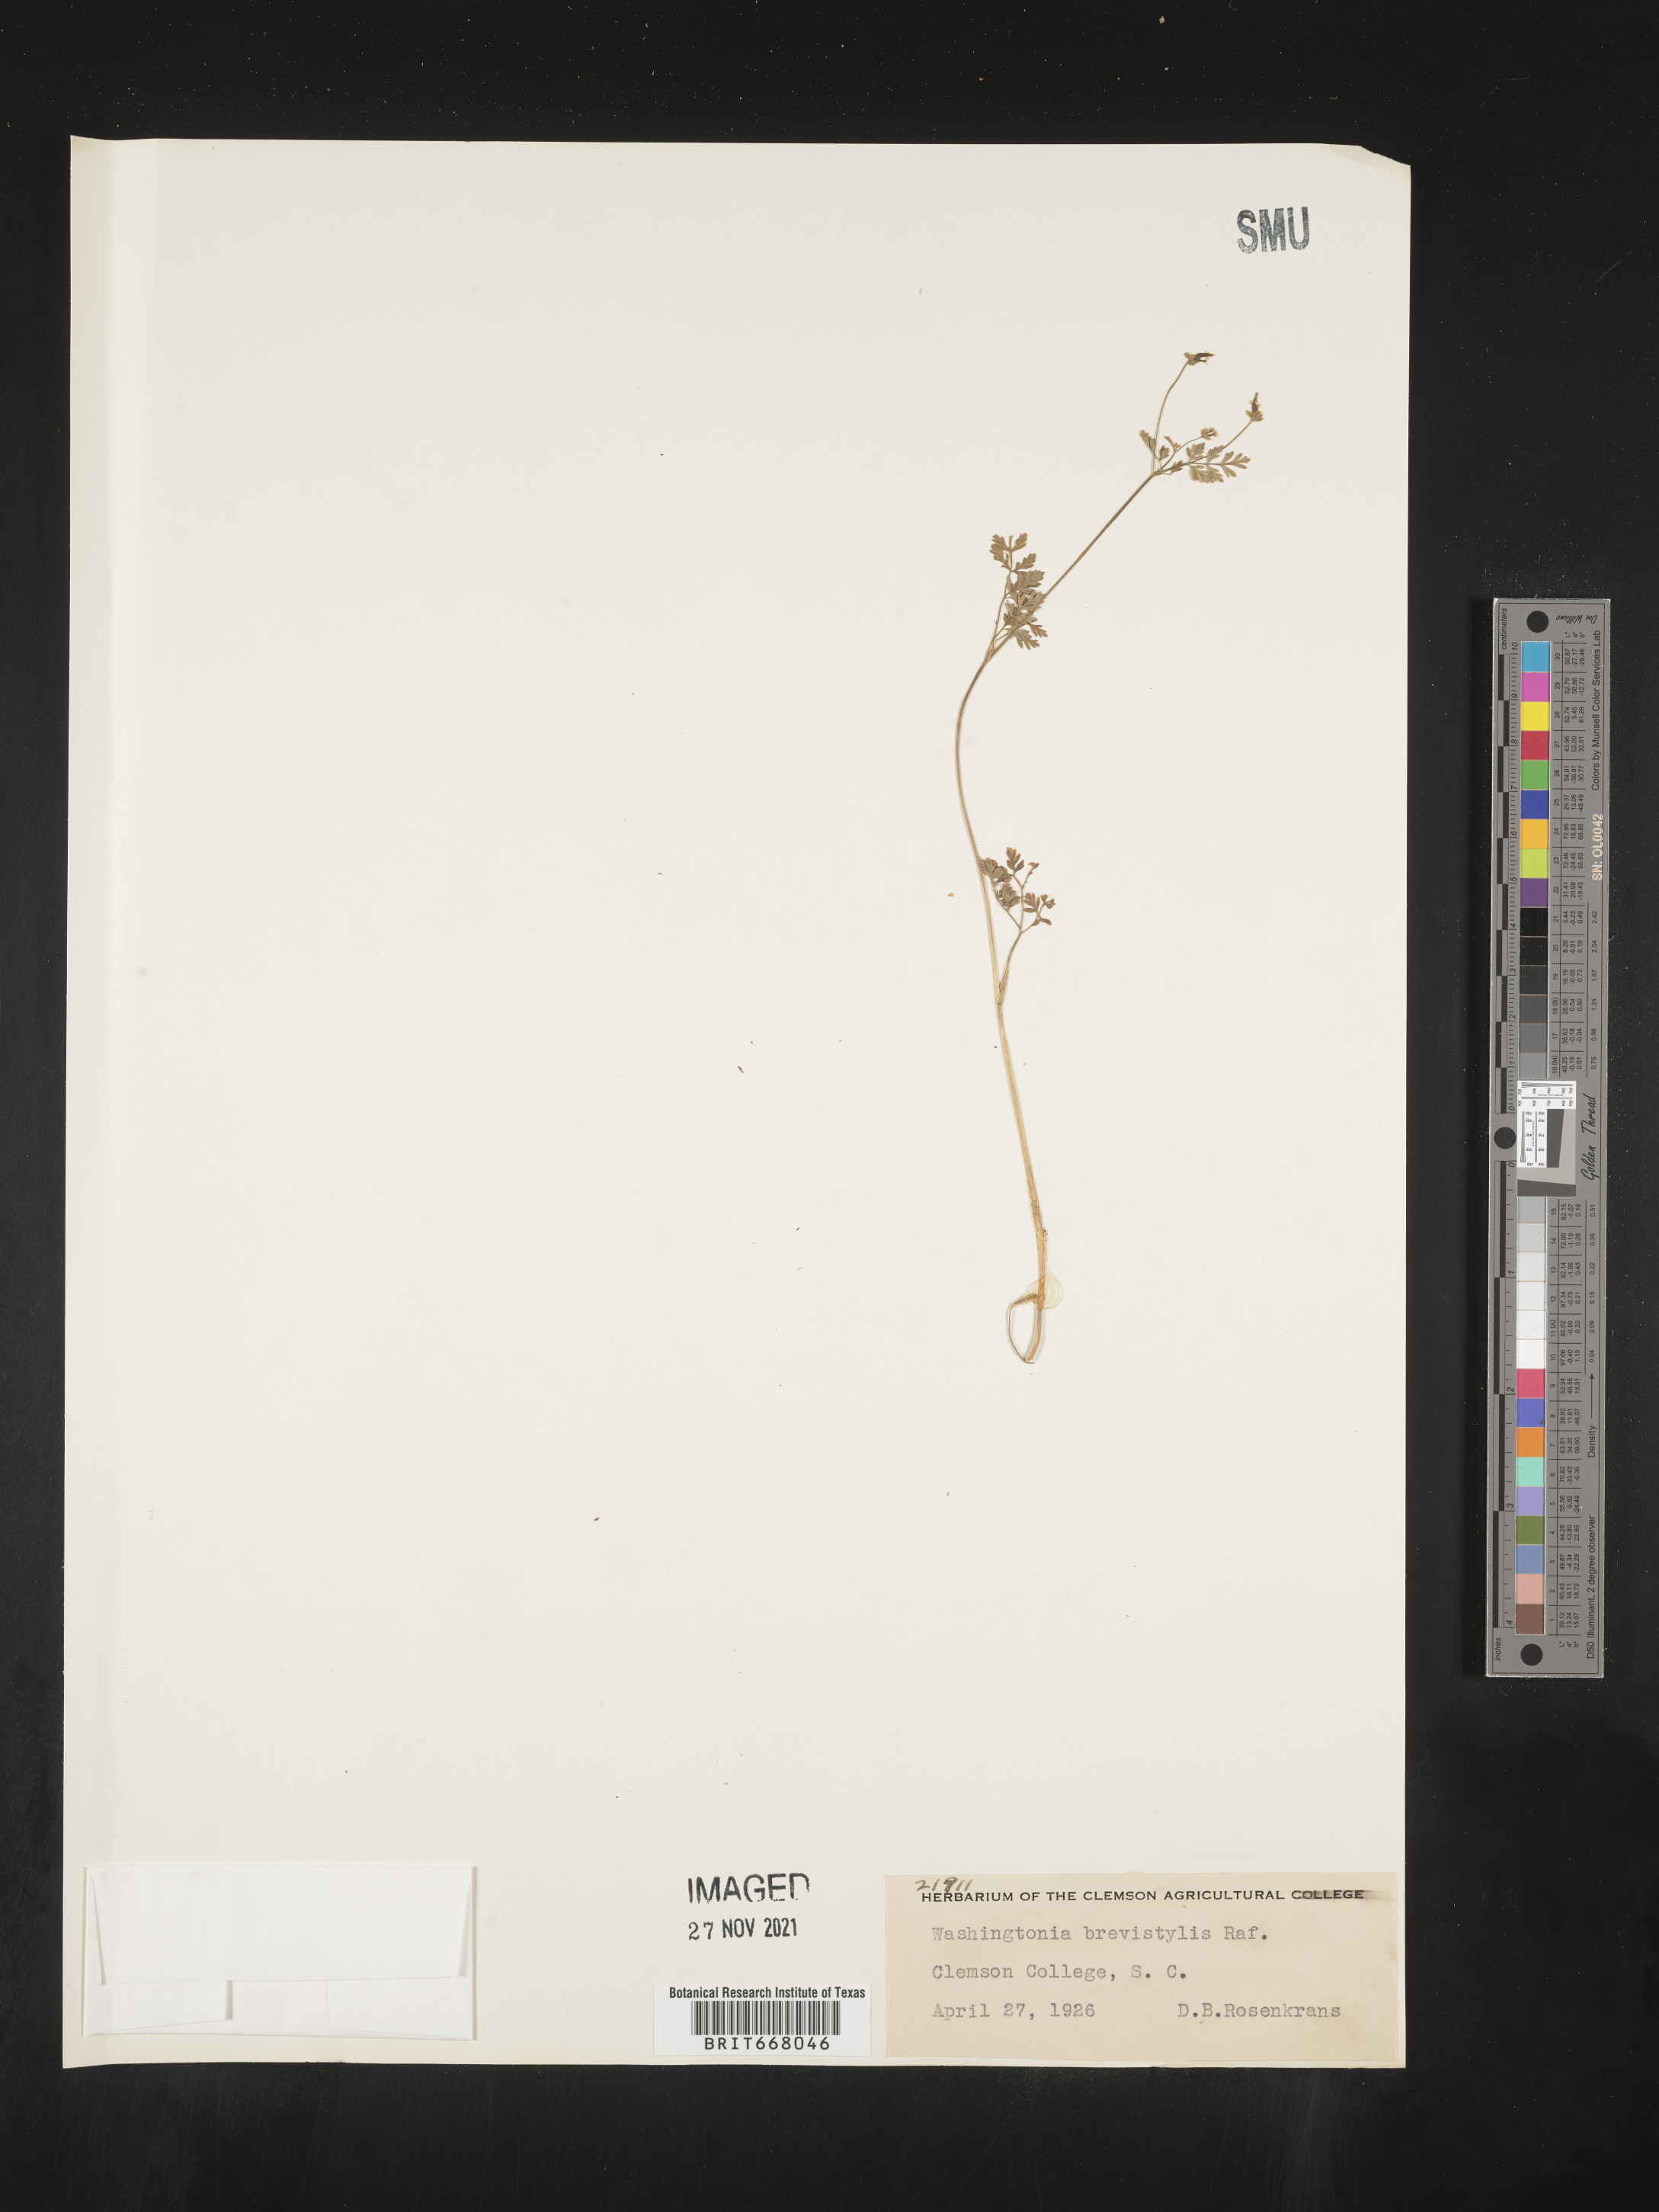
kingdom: Plantae
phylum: Tracheophyta
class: Magnoliopsida
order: Apiales
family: Apiaceae
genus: Chaerophyllum
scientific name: Chaerophyllum tainturieri
